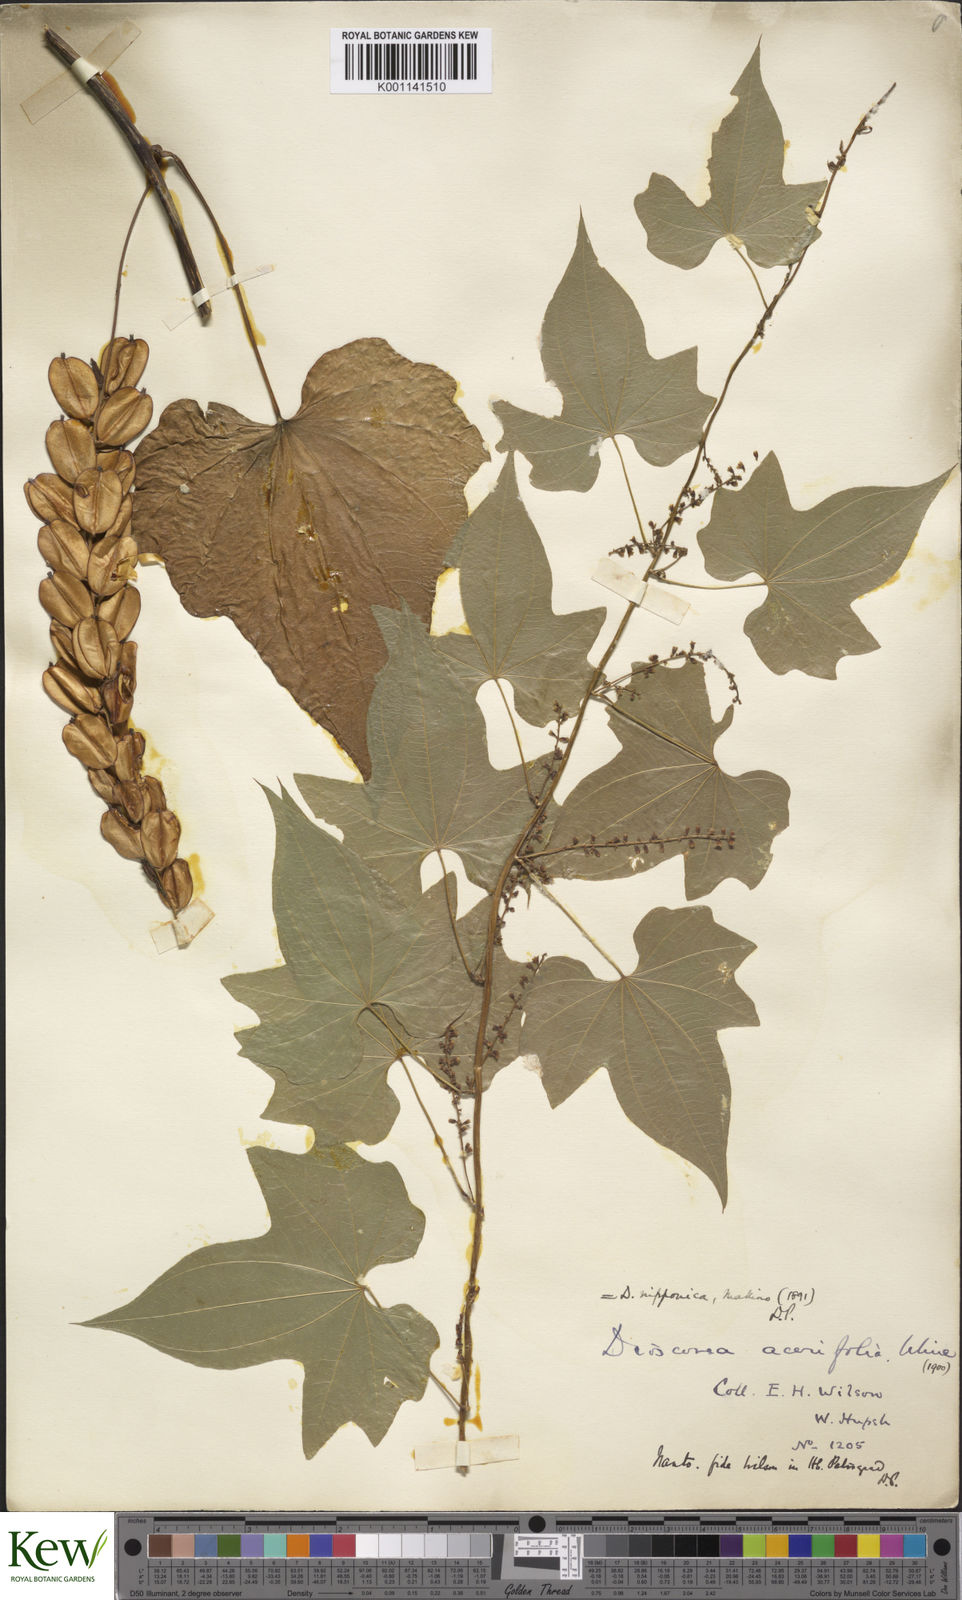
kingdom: Plantae
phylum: Tracheophyta
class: Liliopsida
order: Dioscoreales
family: Dioscoreaceae
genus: Dioscorea
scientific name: Dioscorea nipponica
